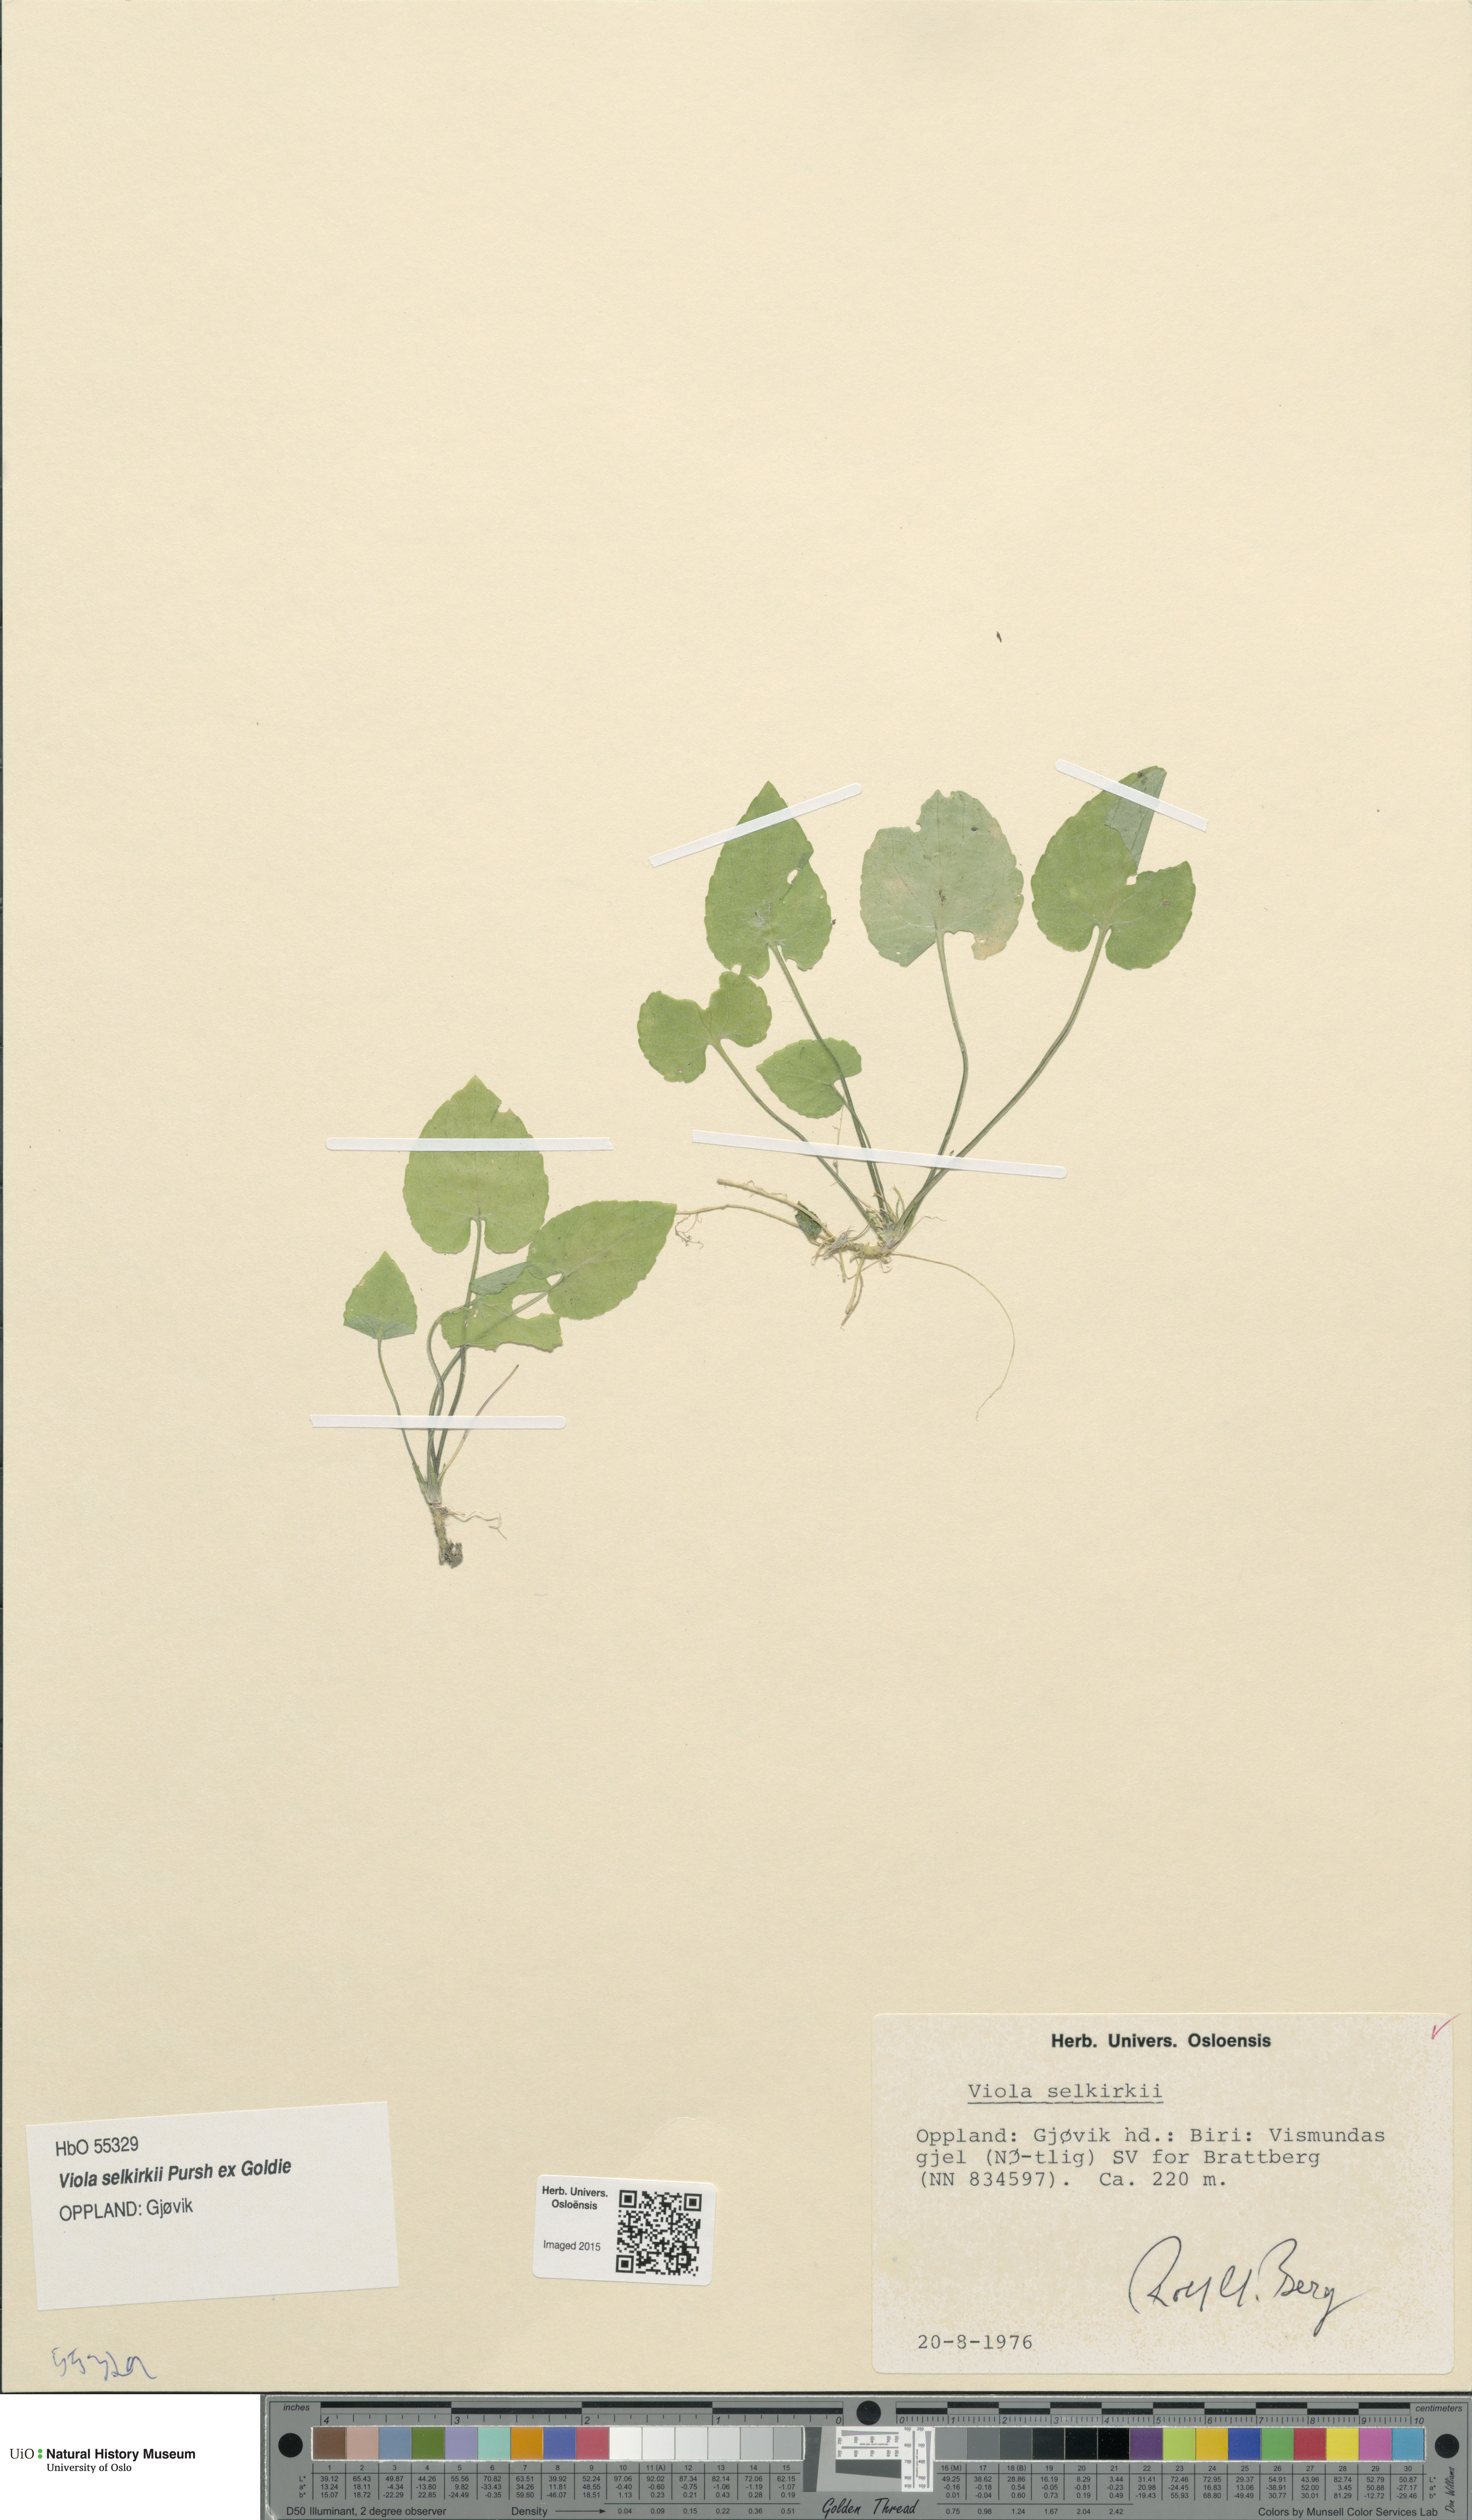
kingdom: Plantae
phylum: Tracheophyta
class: Magnoliopsida
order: Malpighiales
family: Violaceae
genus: Viola
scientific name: Viola selkirkii
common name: Selkirk's violet
